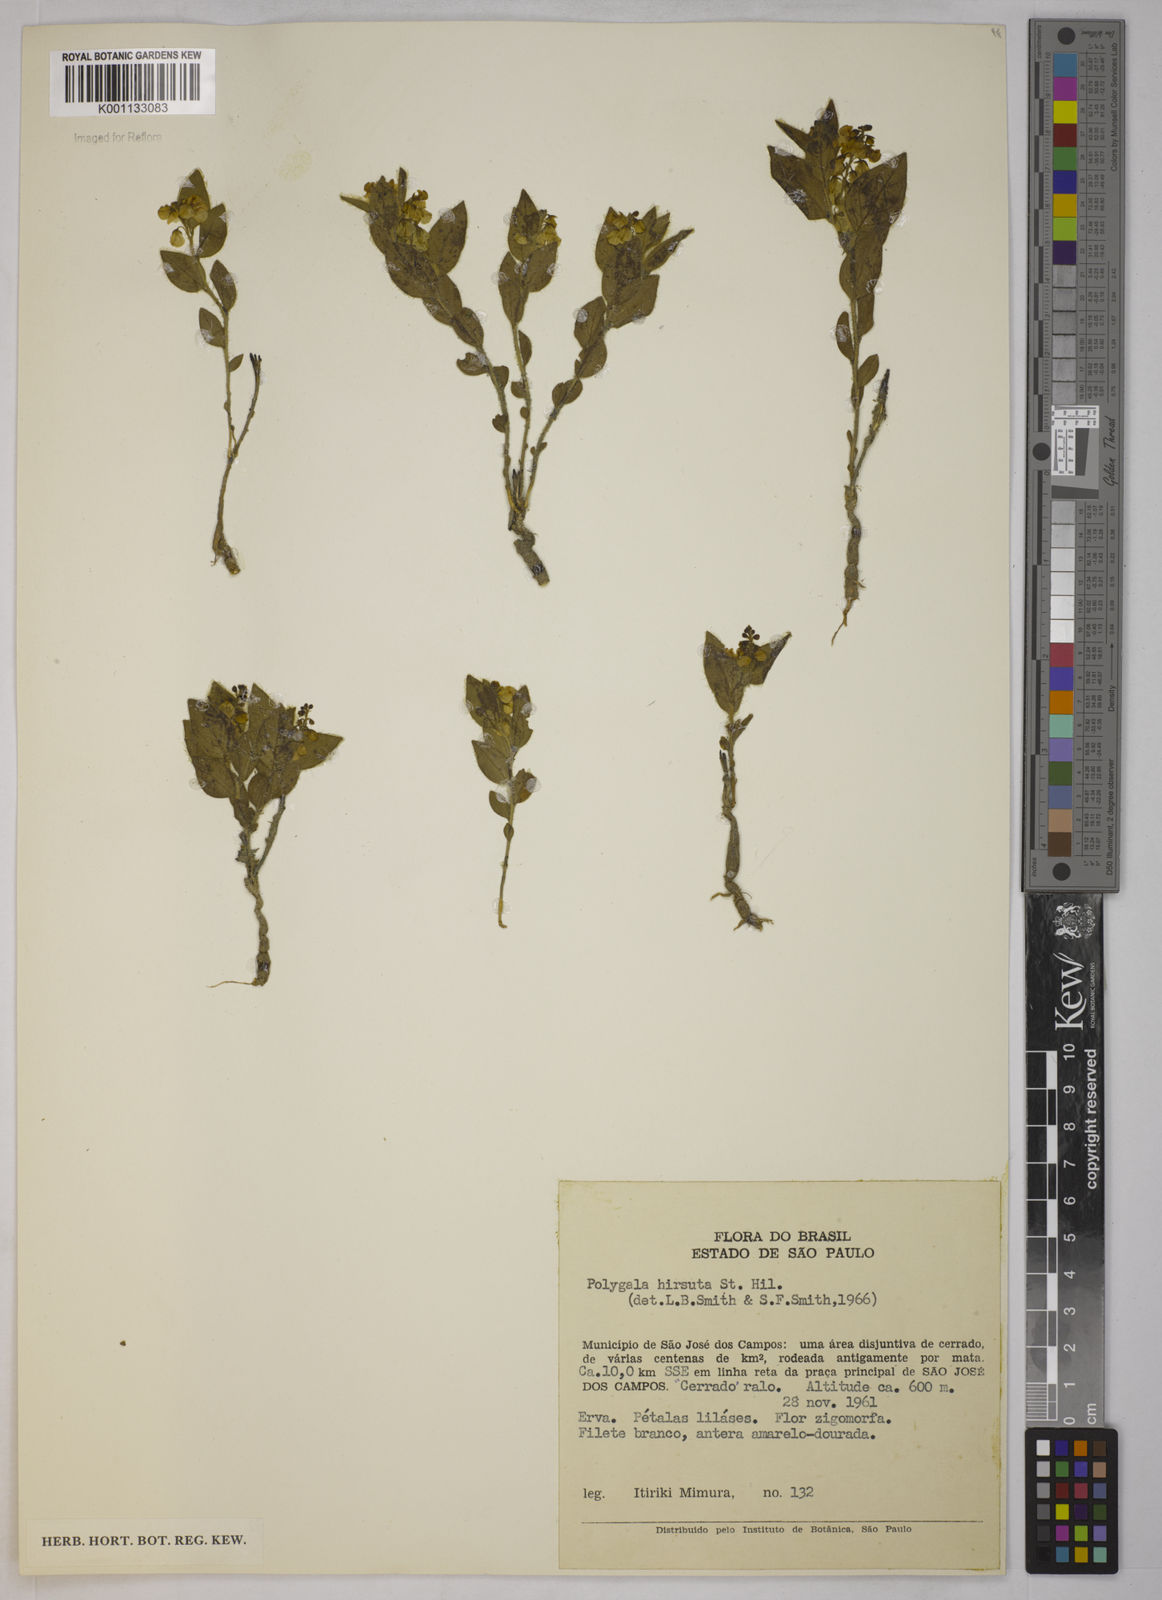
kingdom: Plantae
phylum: Tracheophyta
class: Magnoliopsida
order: Fabales
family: Polygalaceae
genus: Asemeia
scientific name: Asemeia hirsuta
